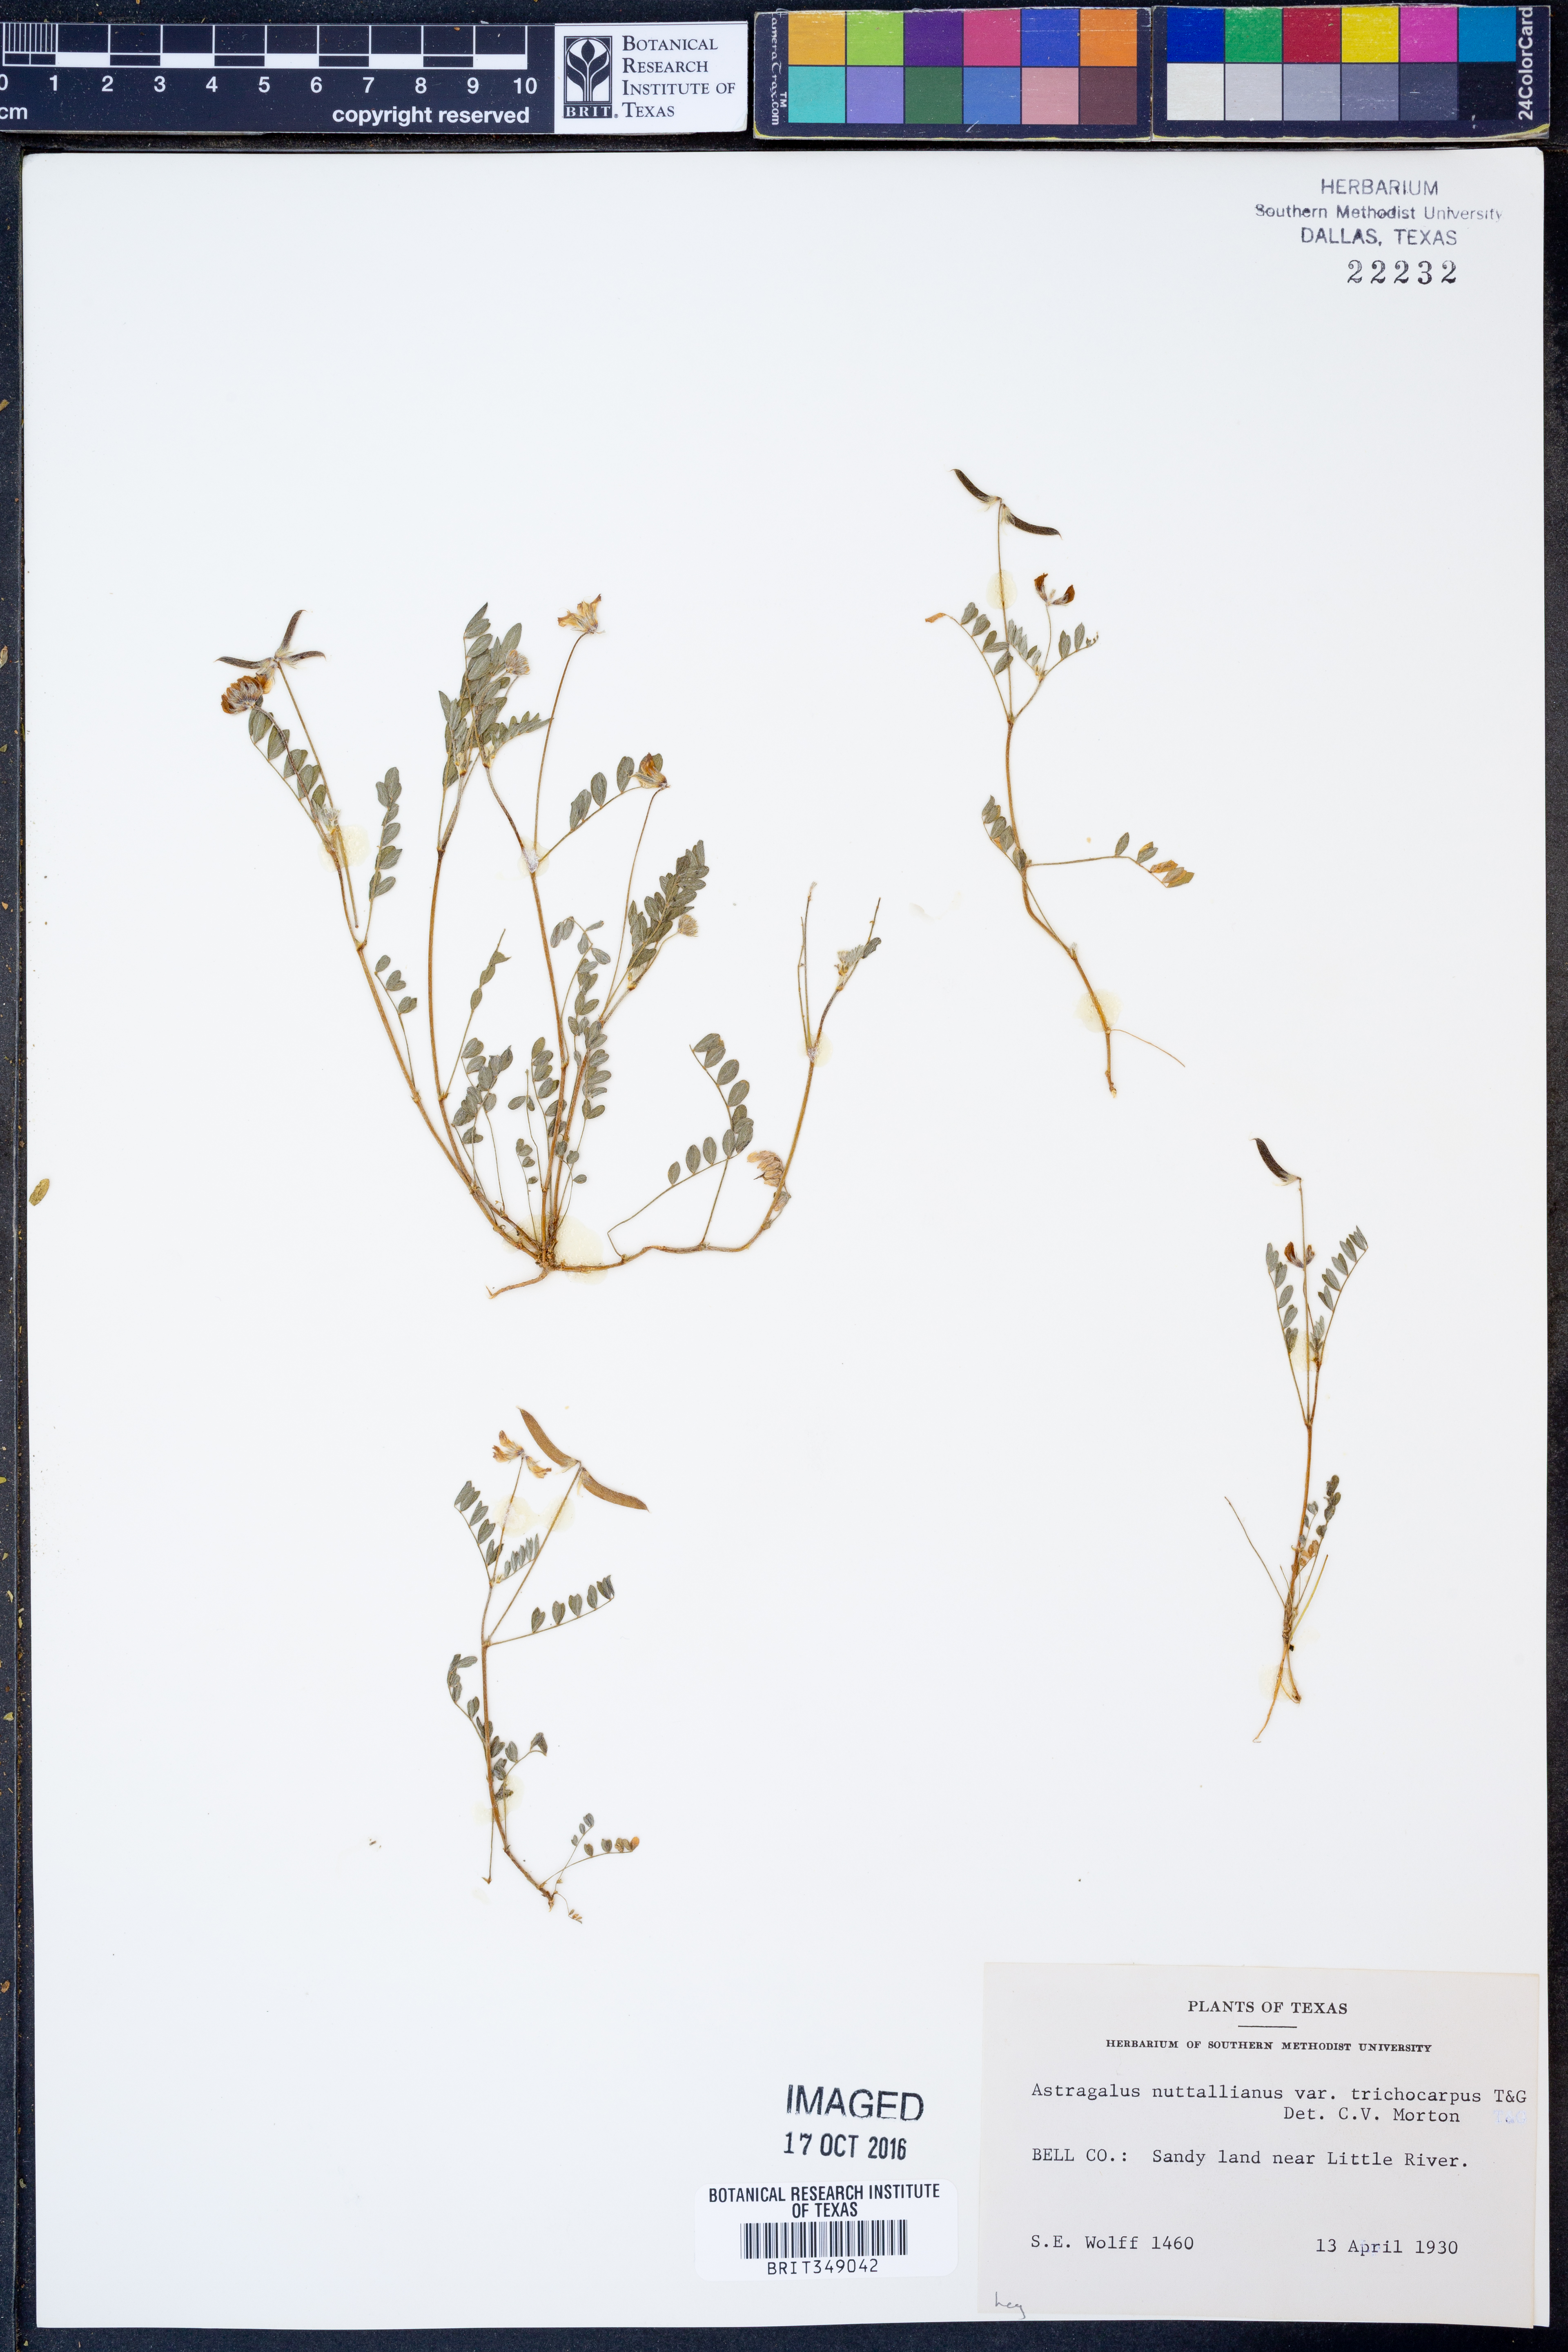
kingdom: Plantae
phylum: Tracheophyta
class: Magnoliopsida
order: Fabales
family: Fabaceae
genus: Astragalus
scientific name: Astragalus nuttallianus
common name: Smallflowered milkvetch
